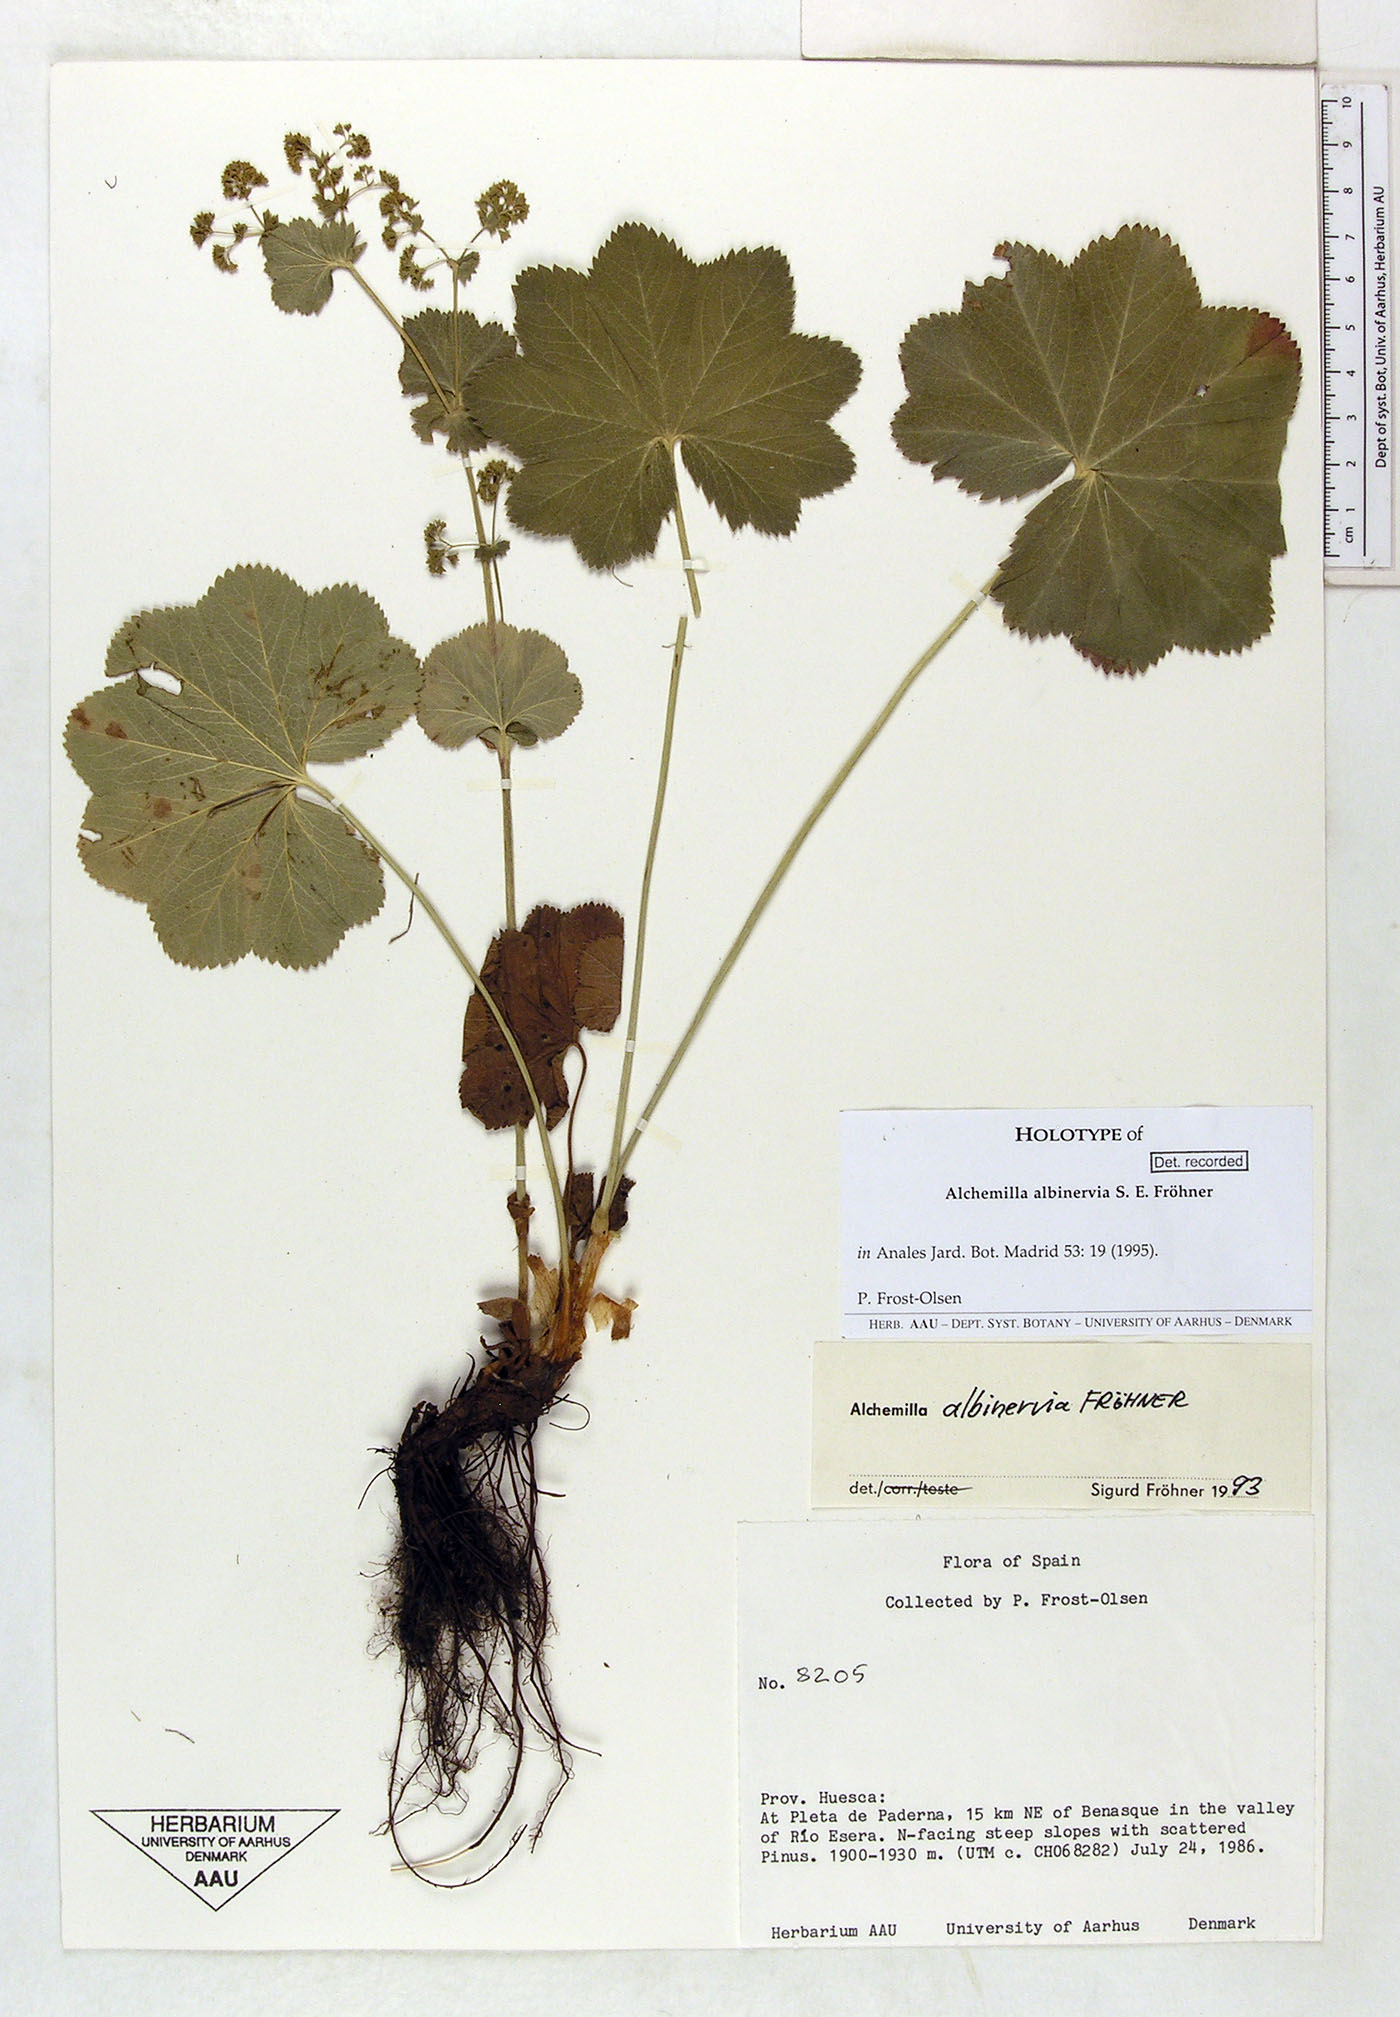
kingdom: Plantae
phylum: Tracheophyta
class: Magnoliopsida
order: Rosales
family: Rosaceae
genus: Alchemilla
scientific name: Alchemilla albinervia
